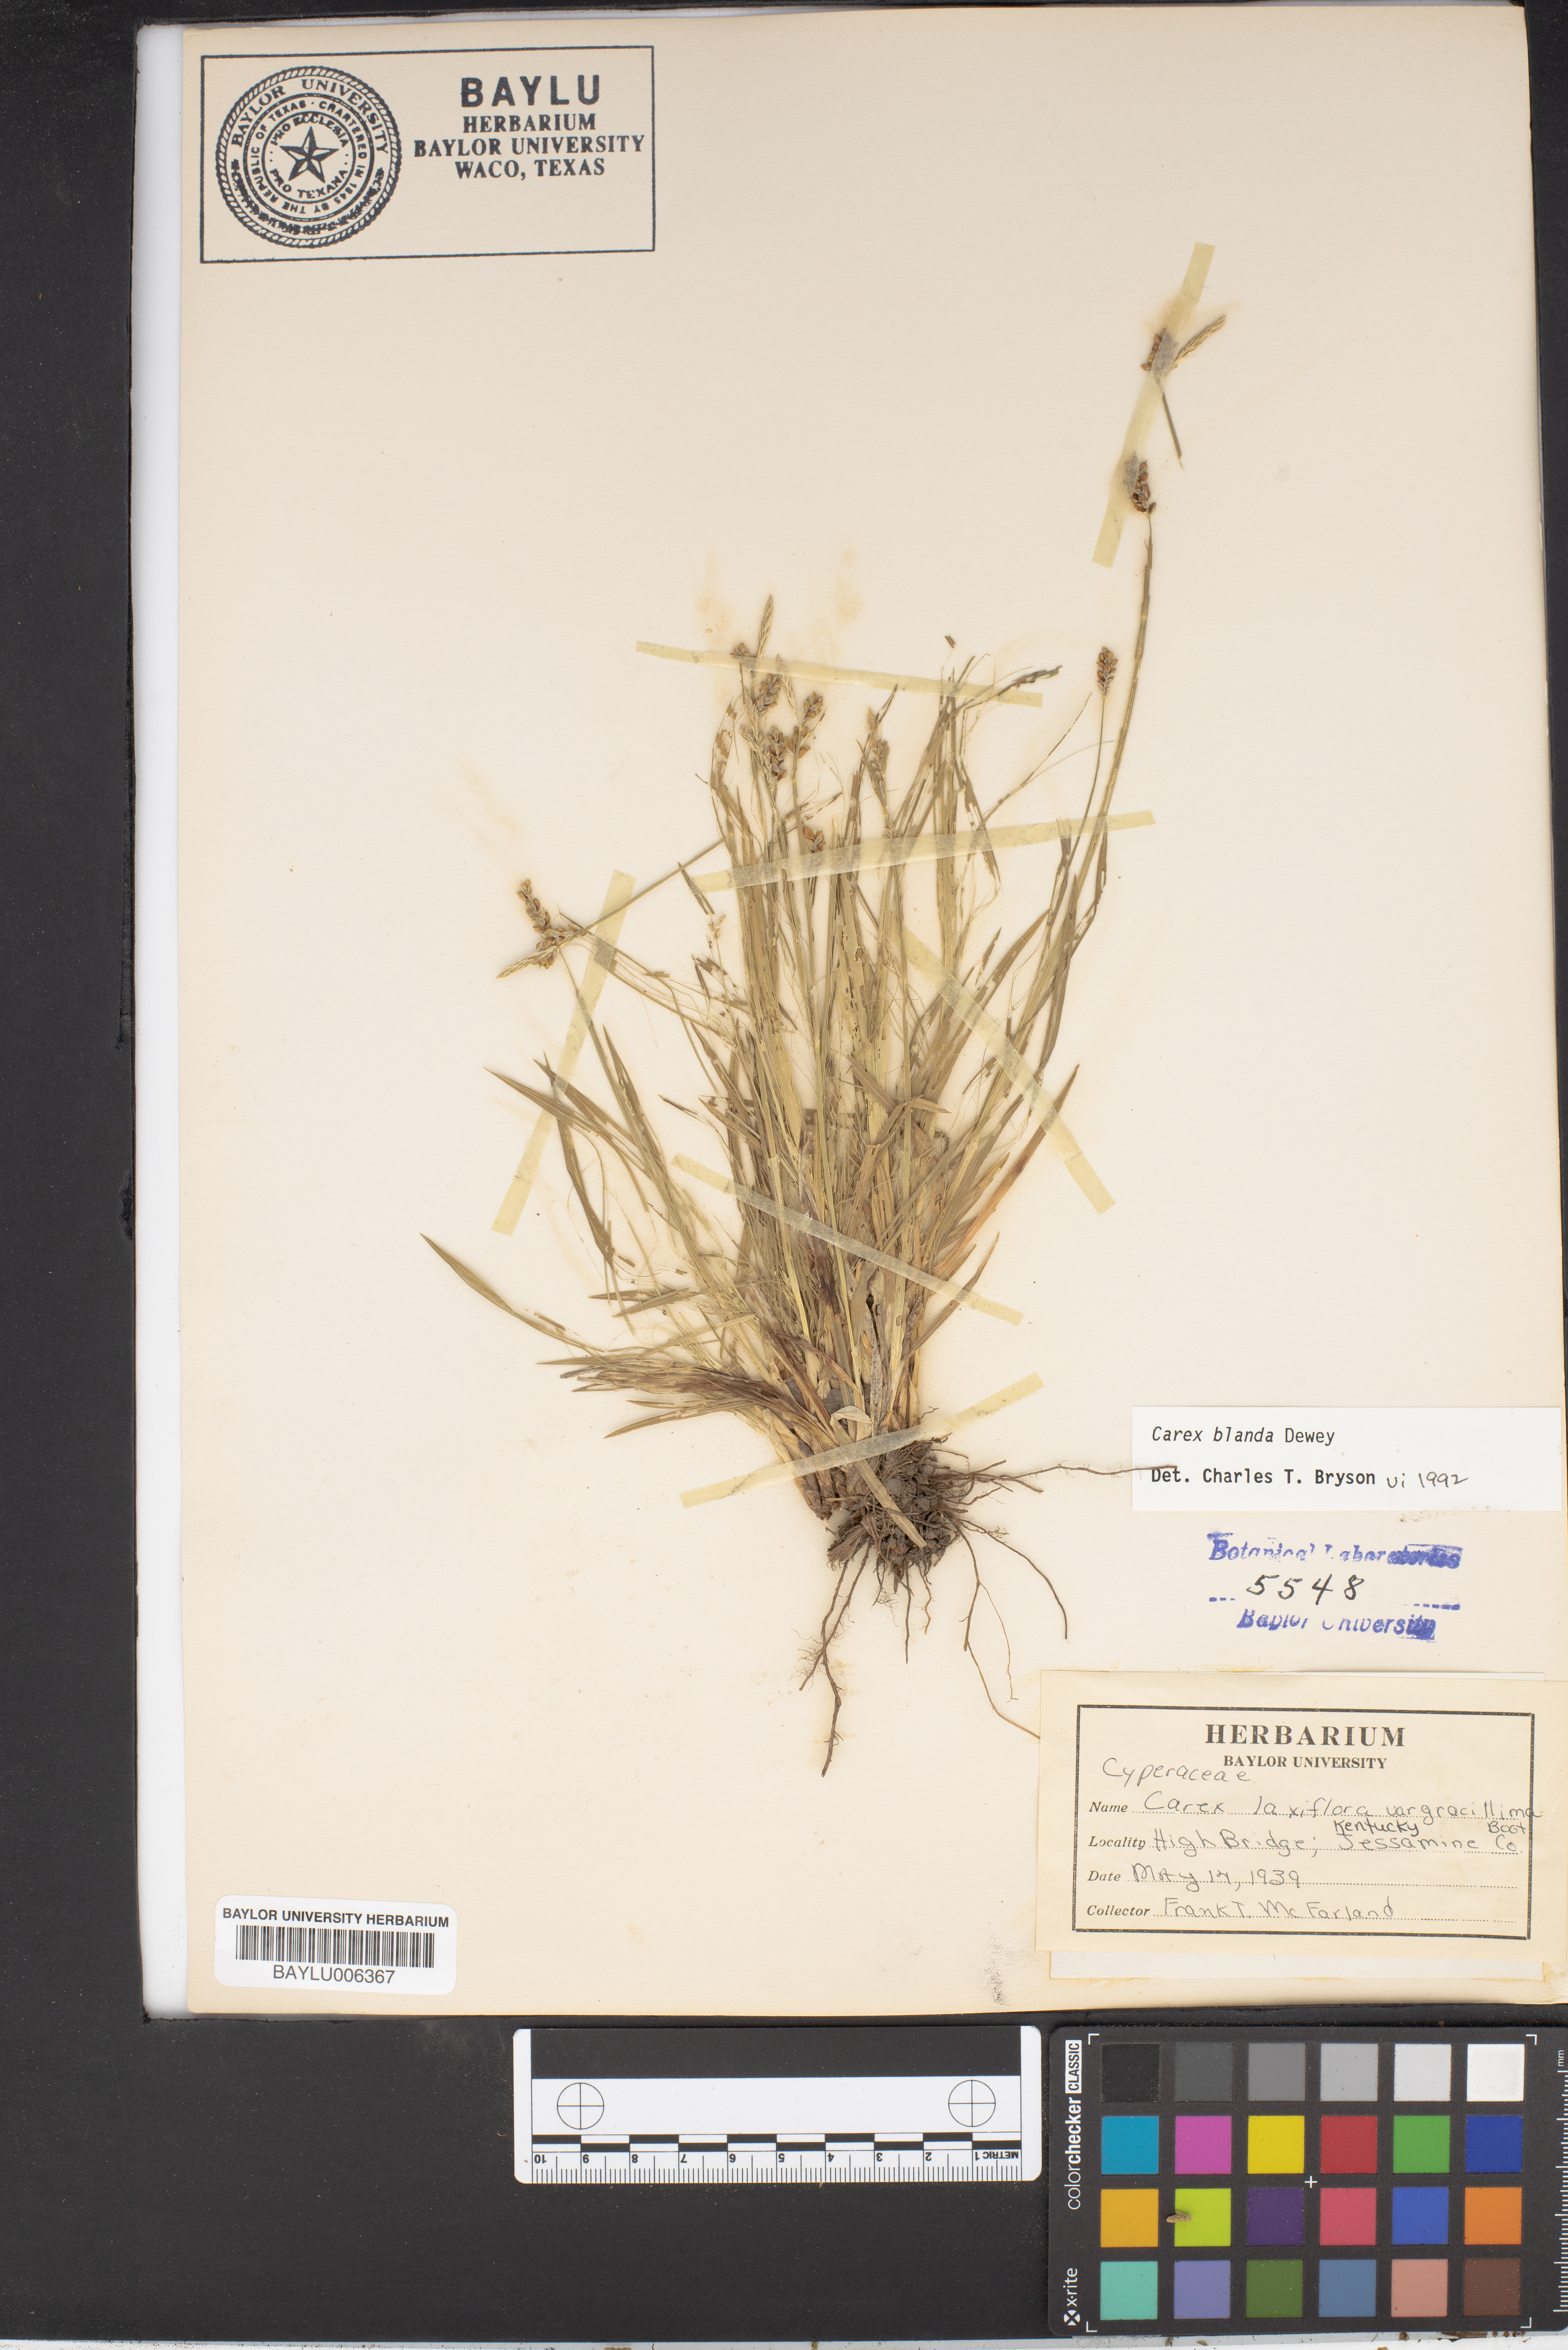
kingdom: Plantae
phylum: Tracheophyta
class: Liliopsida
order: Poales
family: Cyperaceae
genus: Carex
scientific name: Carex laxiflora
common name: Beech wood sedge
